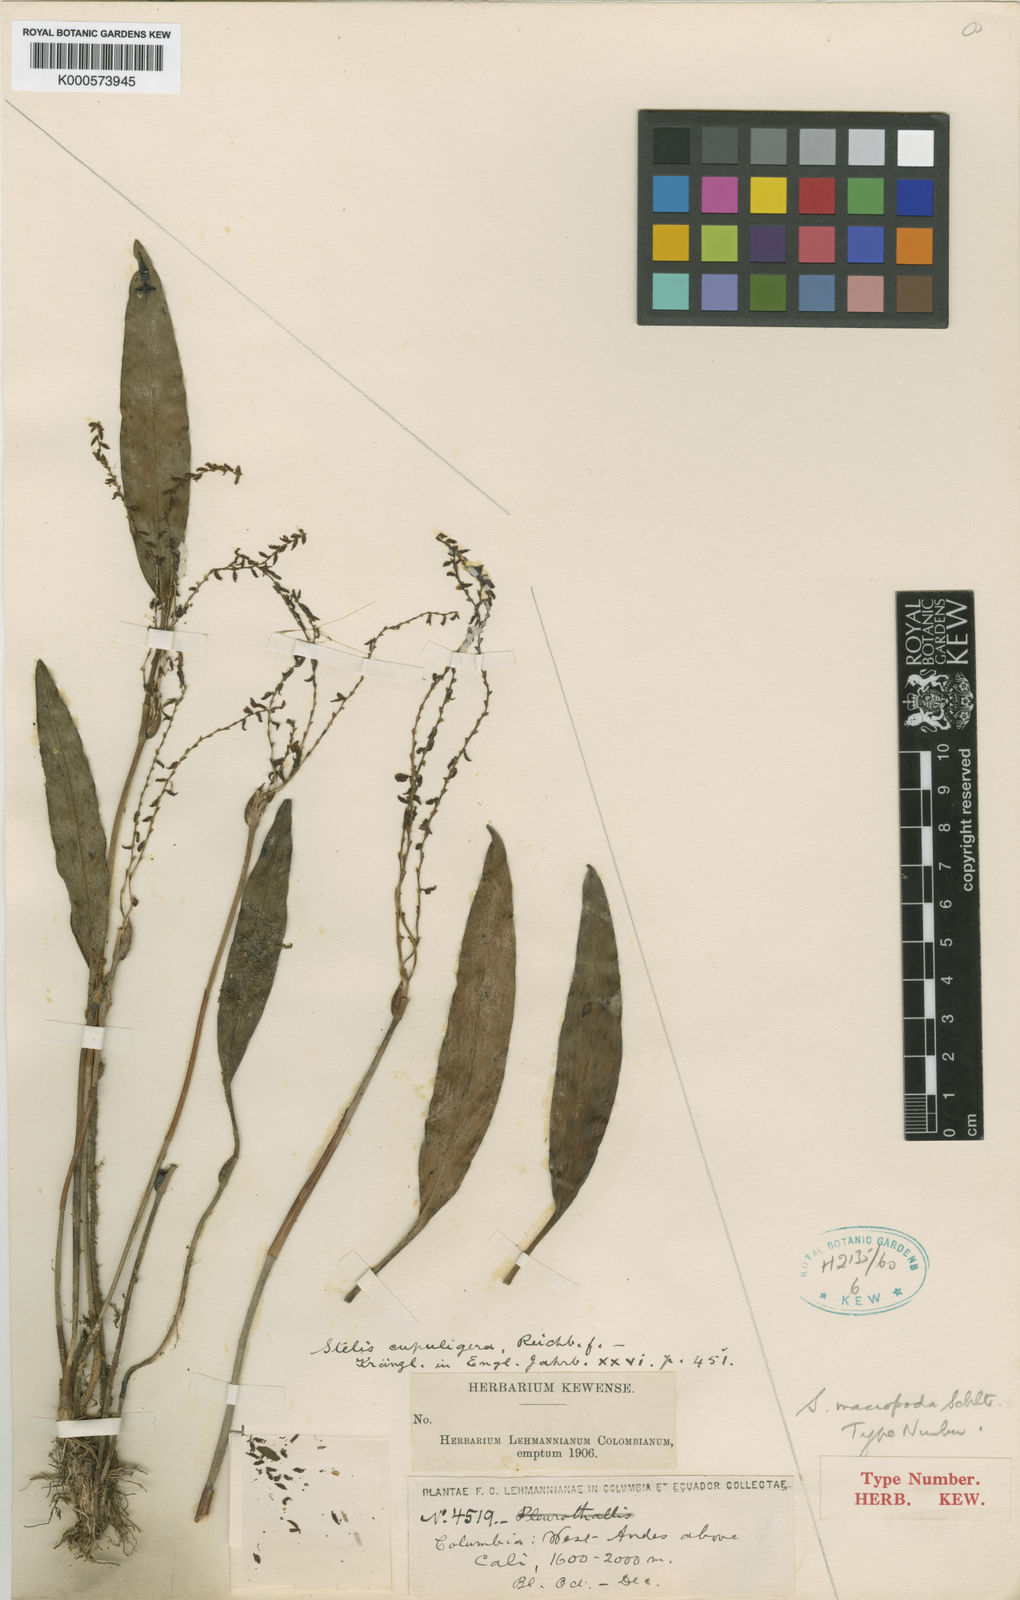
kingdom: Plantae
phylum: Tracheophyta
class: Liliopsida
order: Asparagales
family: Orchidaceae
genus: Stelis
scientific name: Stelis striolata
